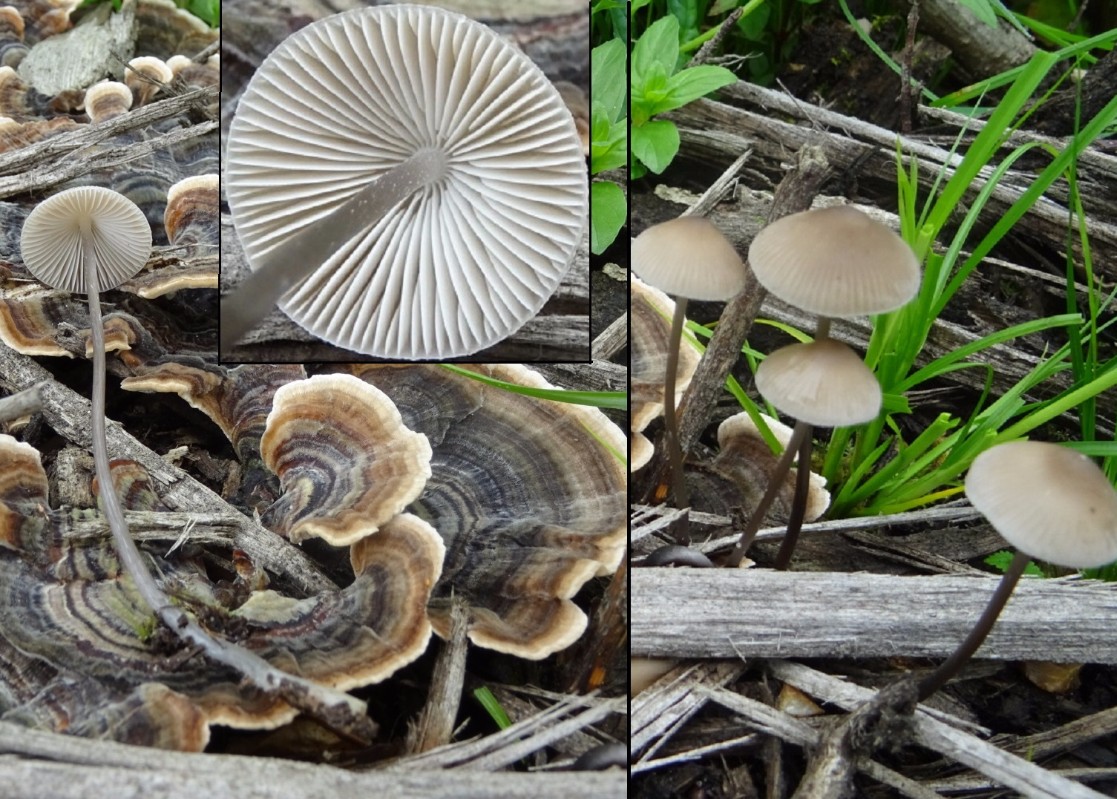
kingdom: Fungi
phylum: Basidiomycota
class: Agaricomycetes
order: Agaricales
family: Mycenaceae
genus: Mycena
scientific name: Mycena vitilis
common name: blankstokket huesvamp
